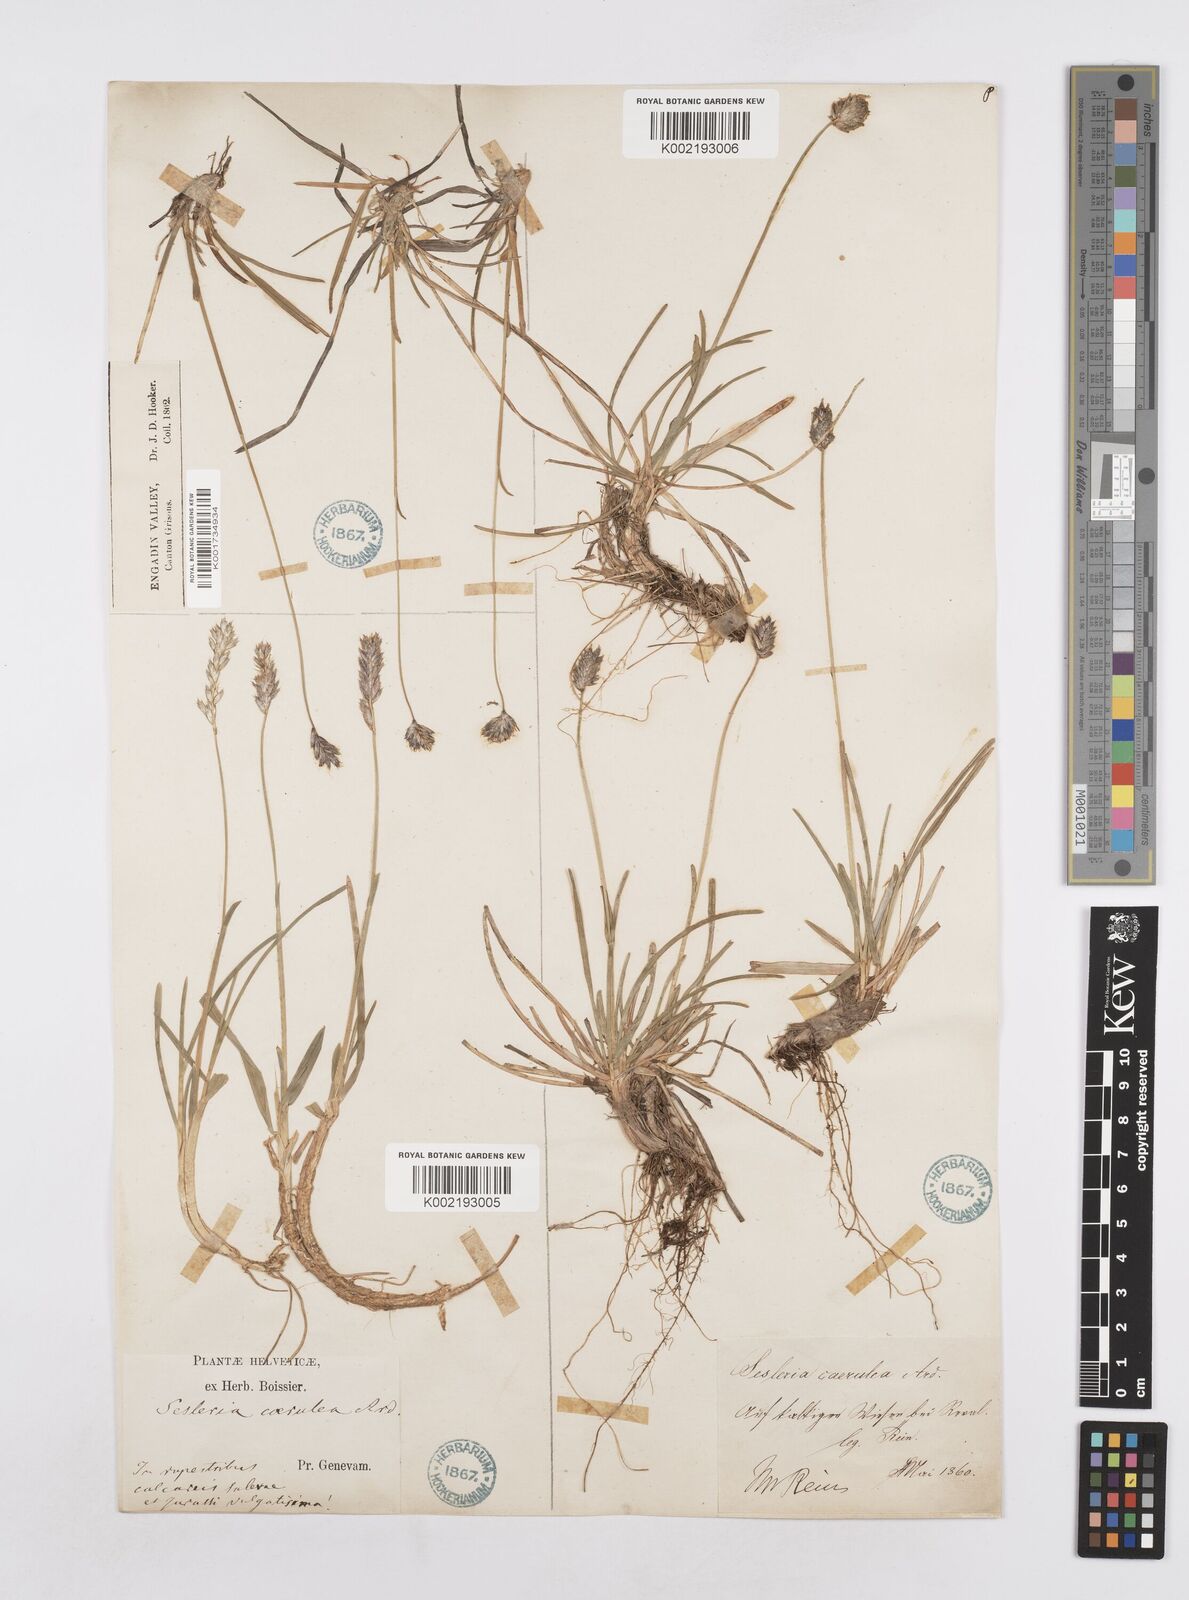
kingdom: Plantae
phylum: Tracheophyta
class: Liliopsida
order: Poales
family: Poaceae
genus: Sesleria
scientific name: Sesleria caerulea
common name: Blue moor-grass
